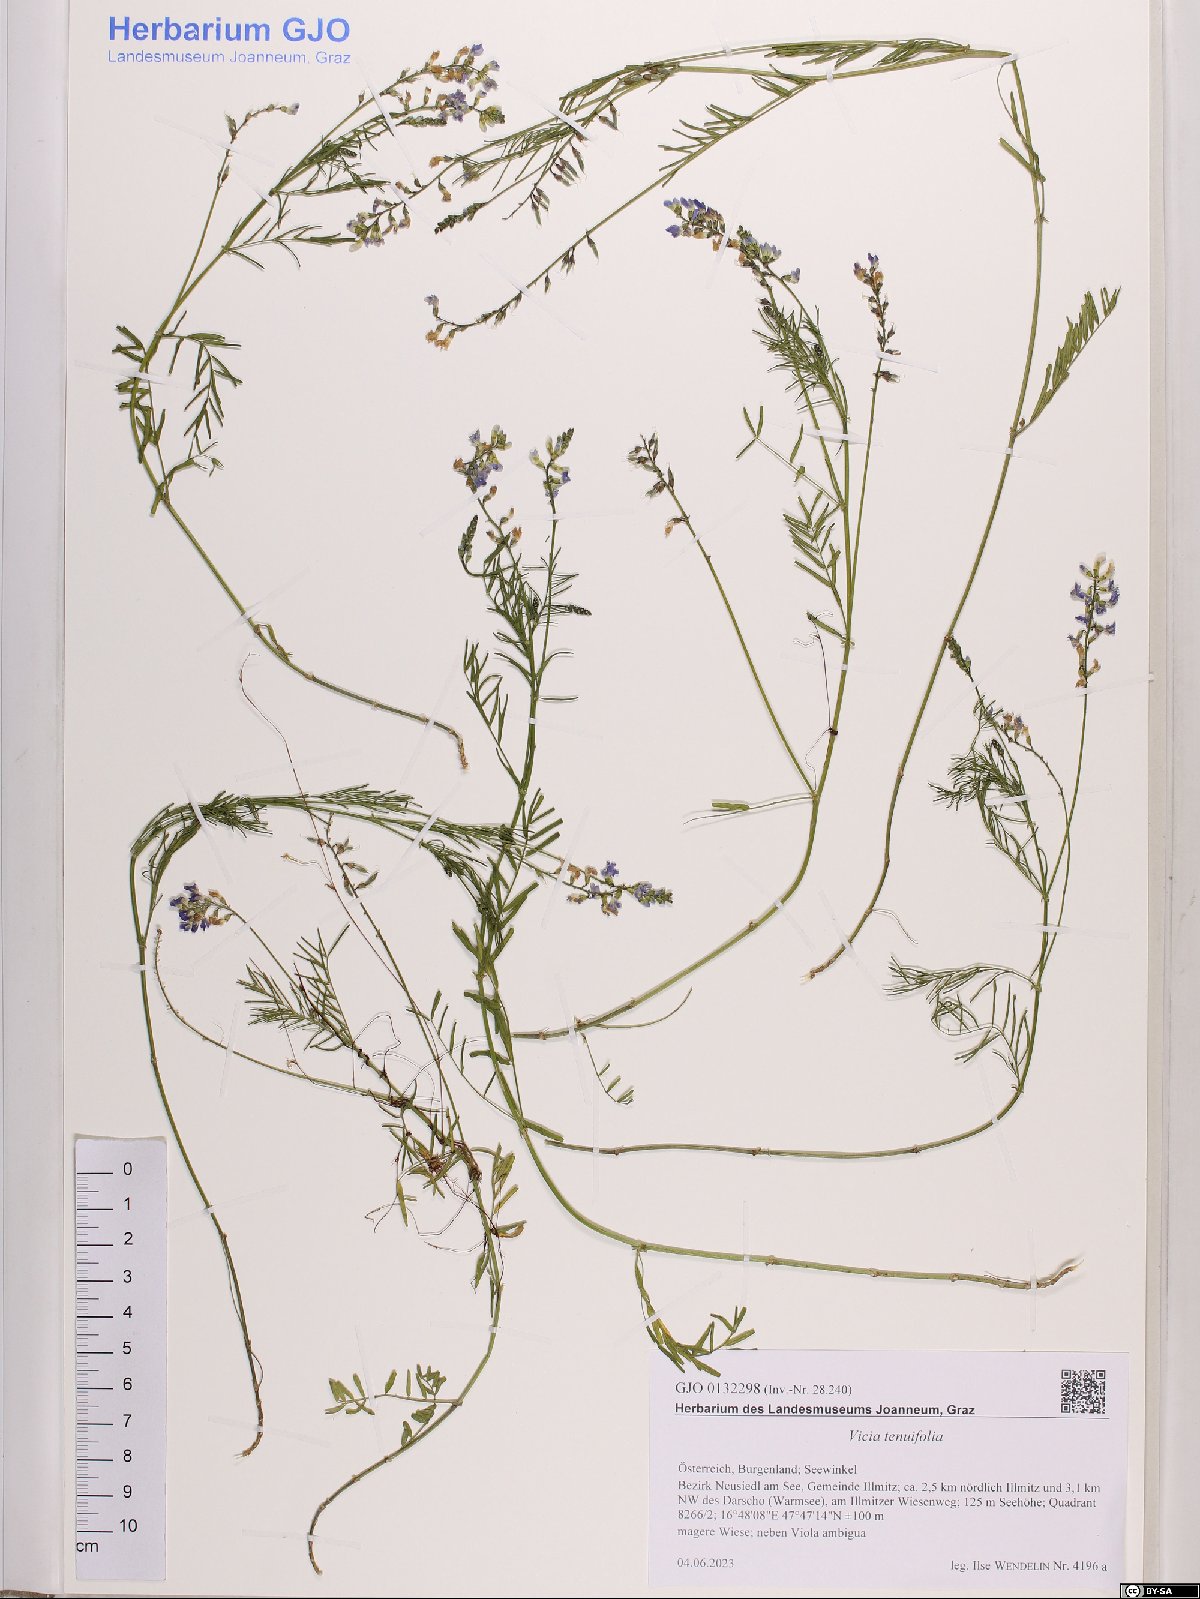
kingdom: Plantae
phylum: Tracheophyta
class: Magnoliopsida
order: Fabales
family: Fabaceae
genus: Vicia
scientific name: Vicia tenuifolia
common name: Fine-leaved vetch
